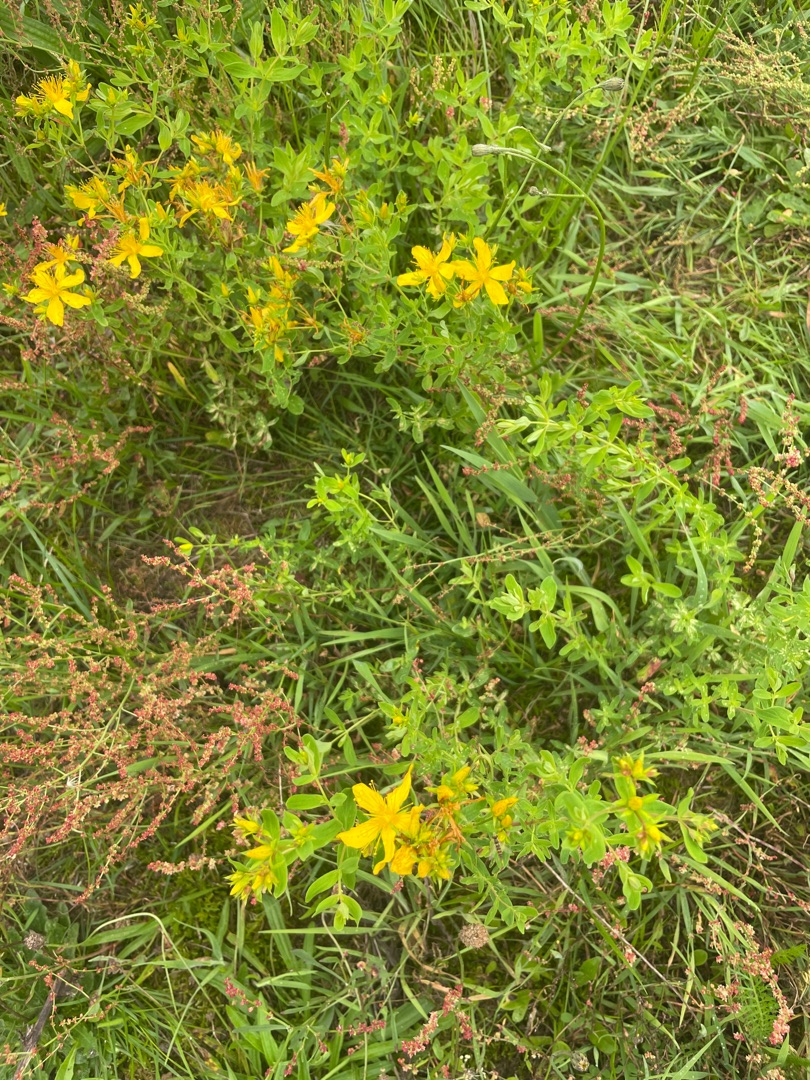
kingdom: Plantae
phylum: Tracheophyta
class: Magnoliopsida
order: Malpighiales
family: Hypericaceae
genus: Hypericum
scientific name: Hypericum perforatum
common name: Prikbladet perikon
